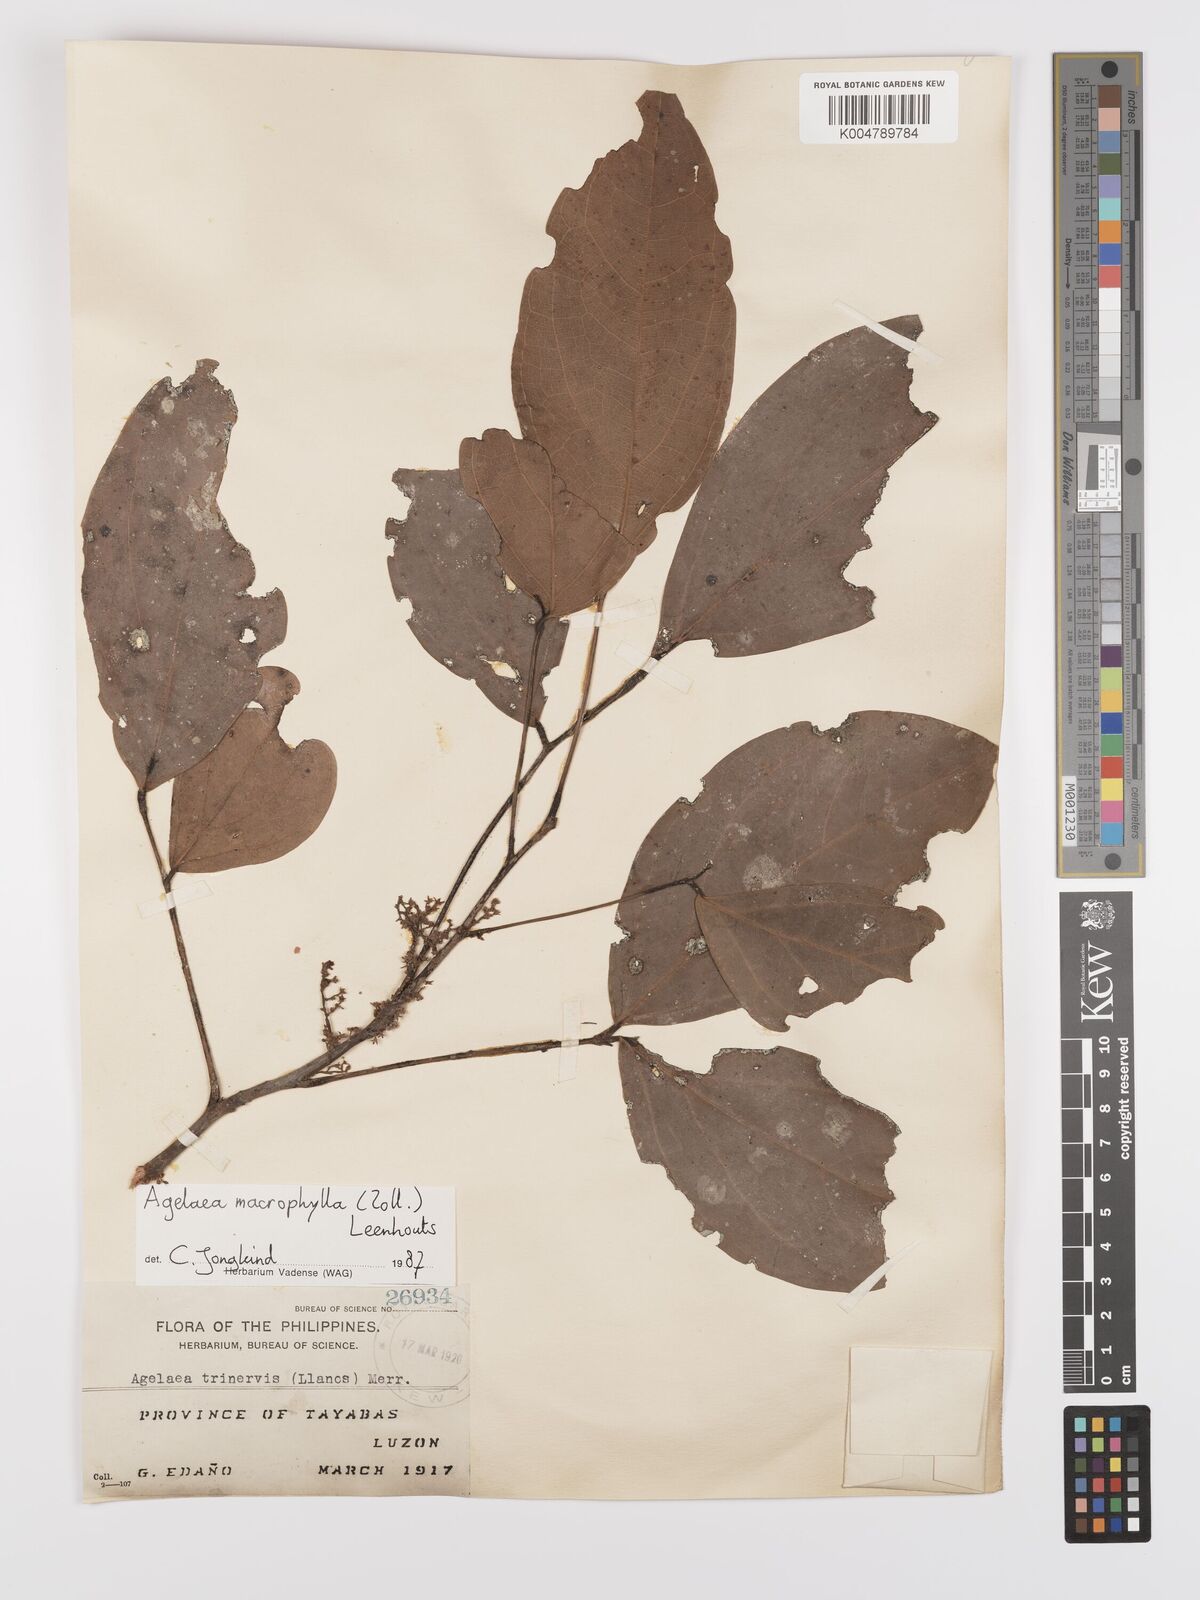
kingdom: Plantae
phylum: Tracheophyta
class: Magnoliopsida
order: Oxalidales
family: Connaraceae
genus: Agelaea
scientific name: Agelaea trinervis
